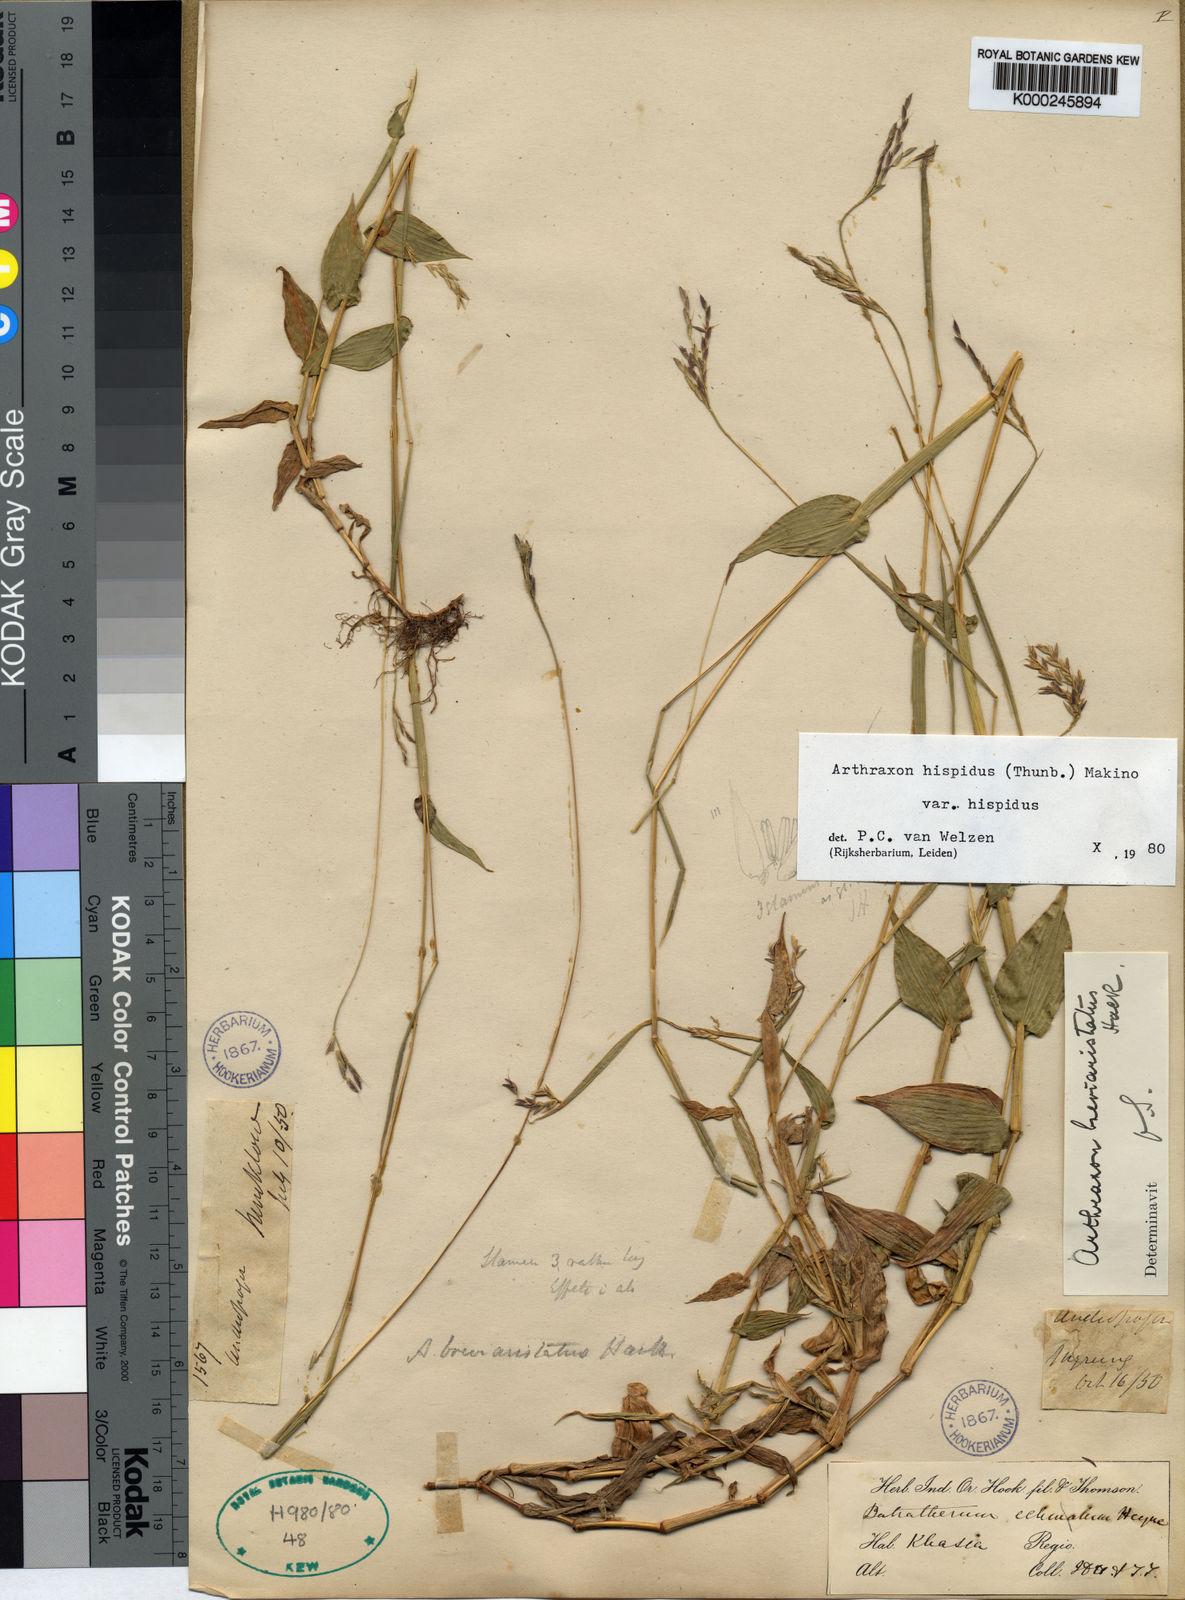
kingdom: Plantae
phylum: Tracheophyta
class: Liliopsida
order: Poales
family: Poaceae
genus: Arthraxon
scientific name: Arthraxon typicus
